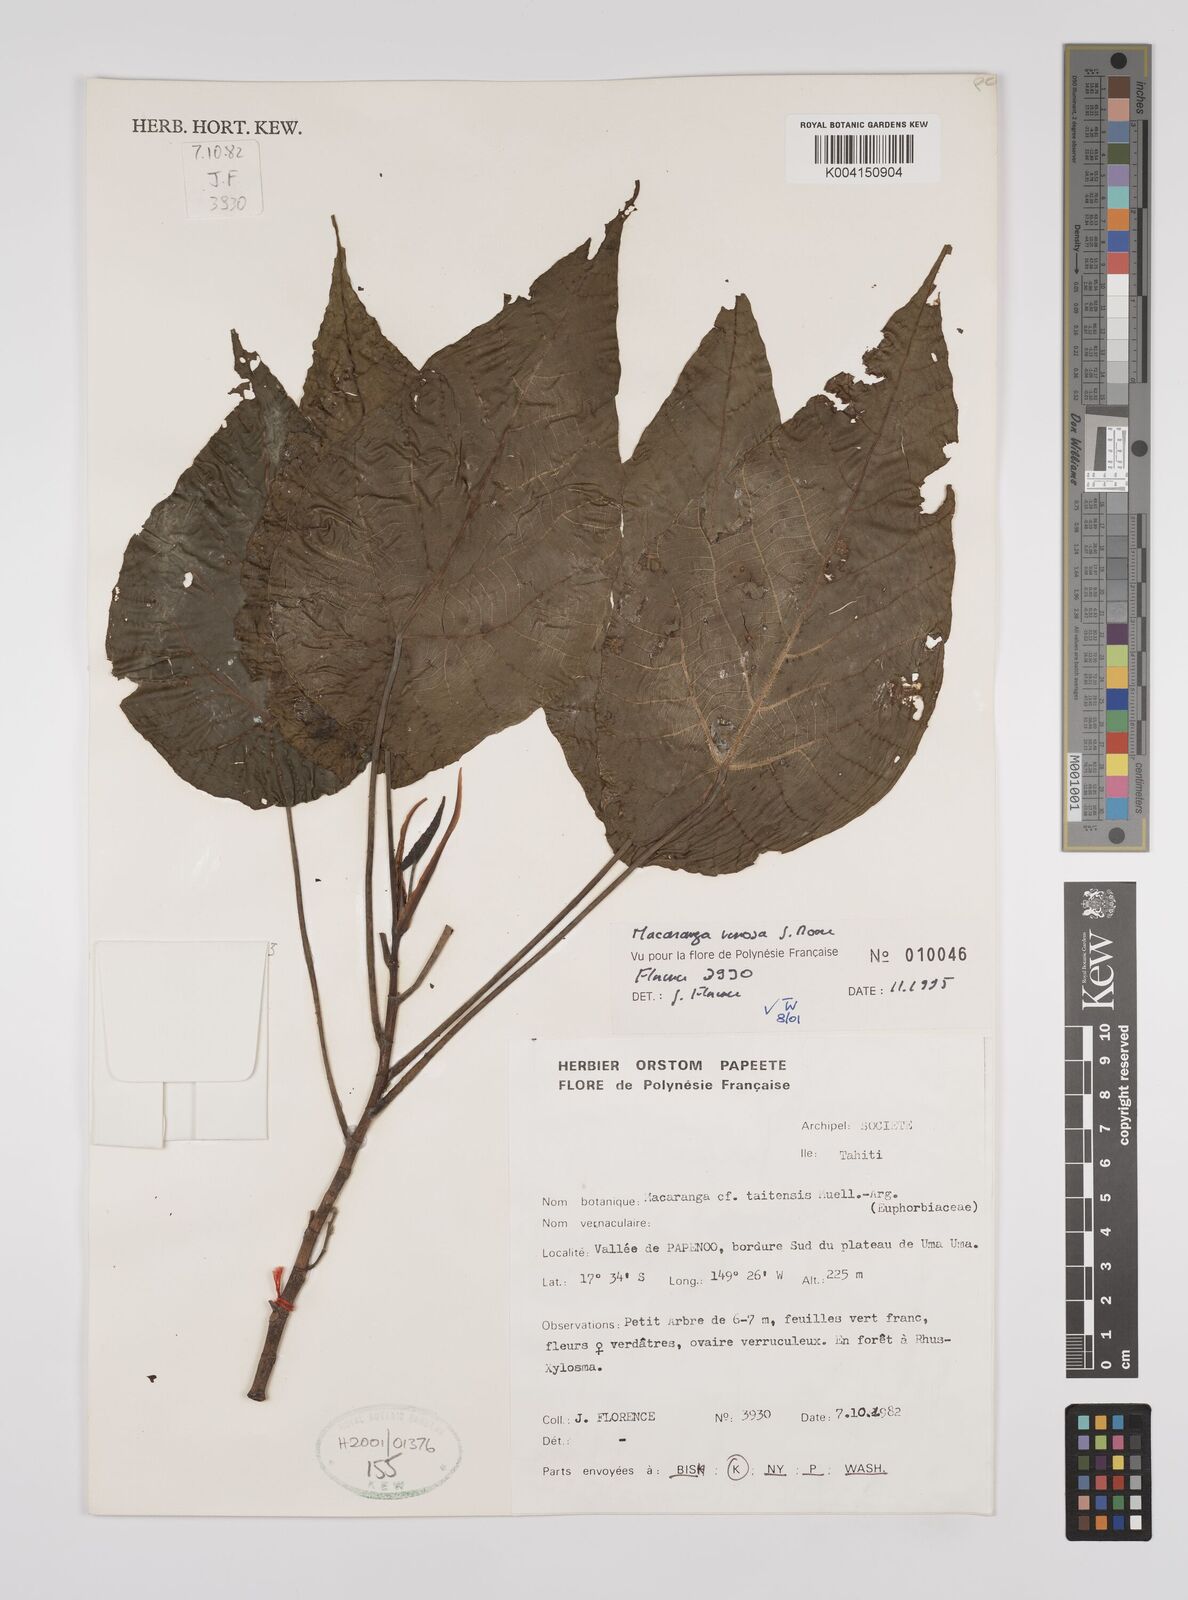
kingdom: Plantae
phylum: Tracheophyta
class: Magnoliopsida
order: Malpighiales
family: Euphorbiaceae
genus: Macaranga
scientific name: Macaranga venosa
